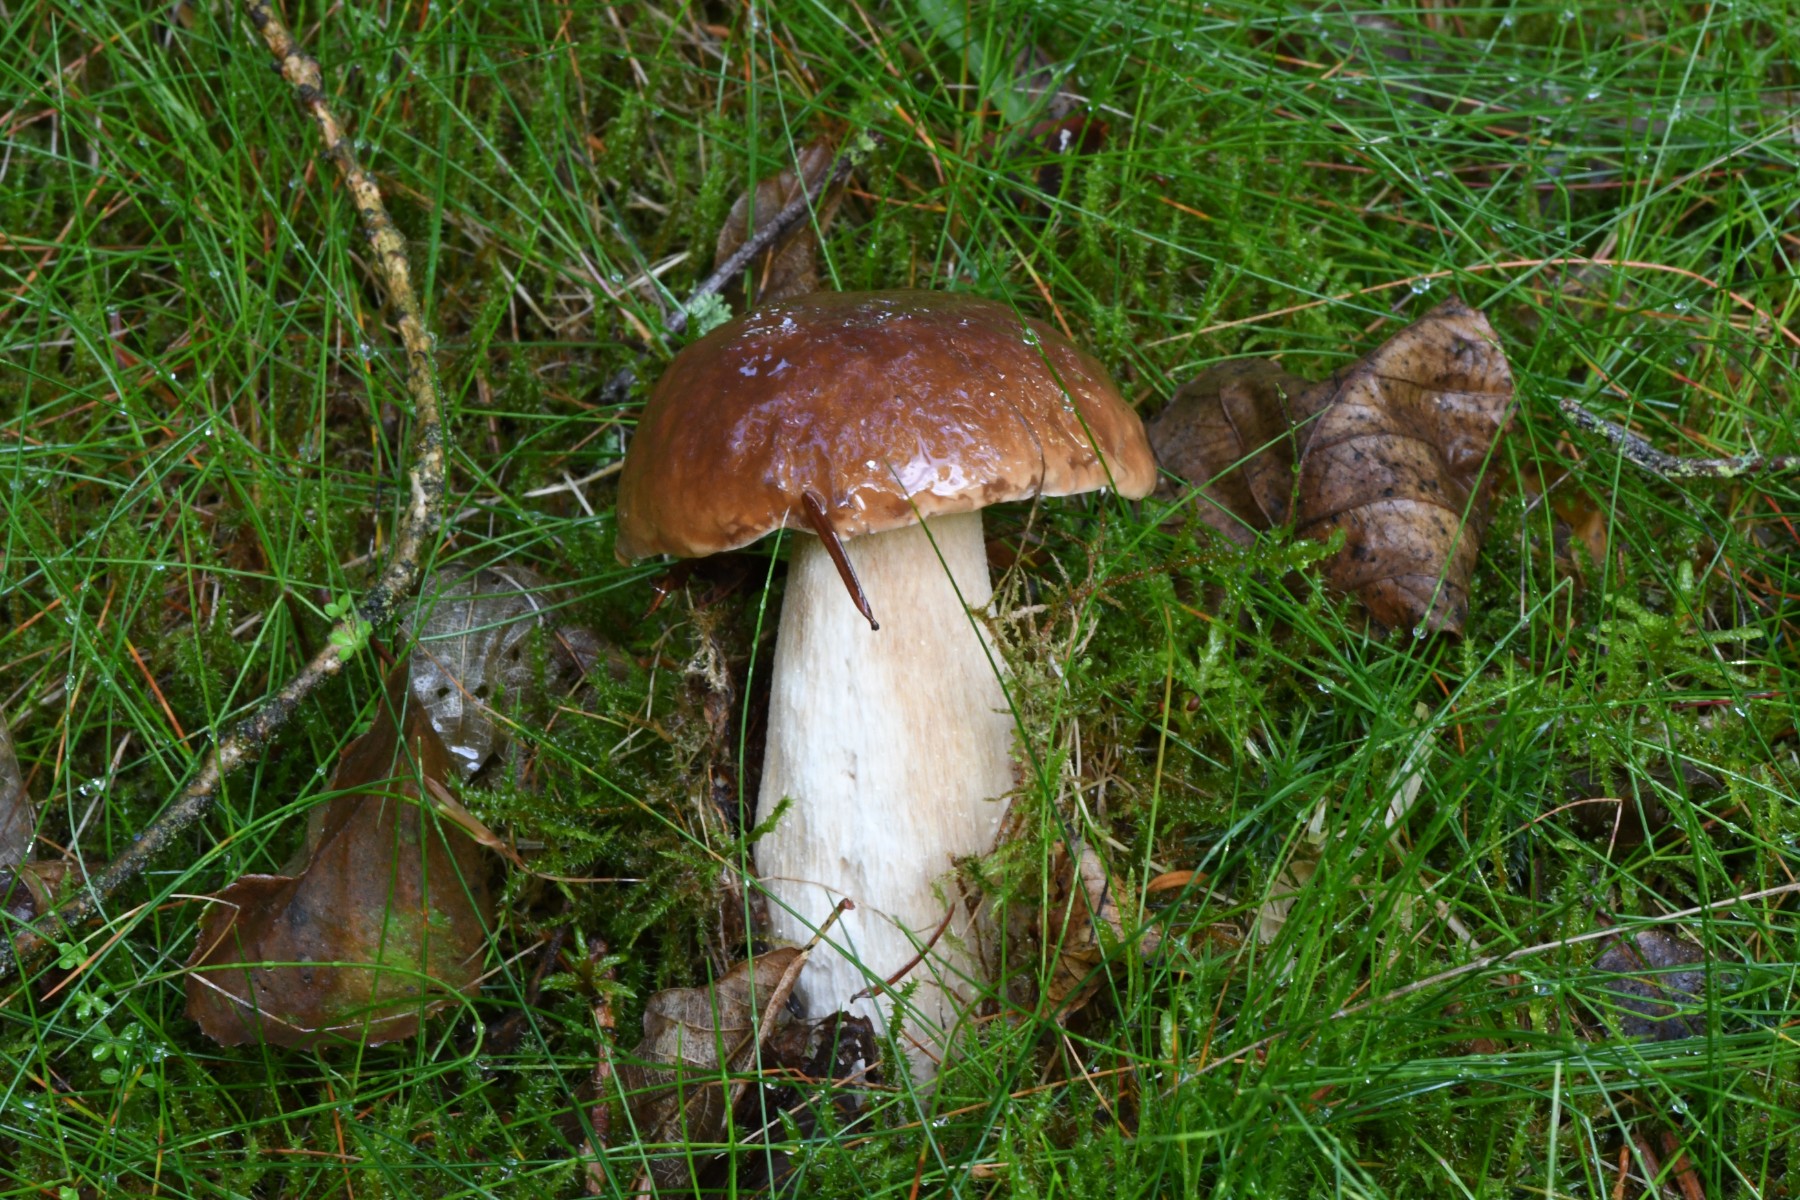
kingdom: Fungi
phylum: Basidiomycota
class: Agaricomycetes
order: Boletales
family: Boletaceae
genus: Boletus
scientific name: Boletus edulis
